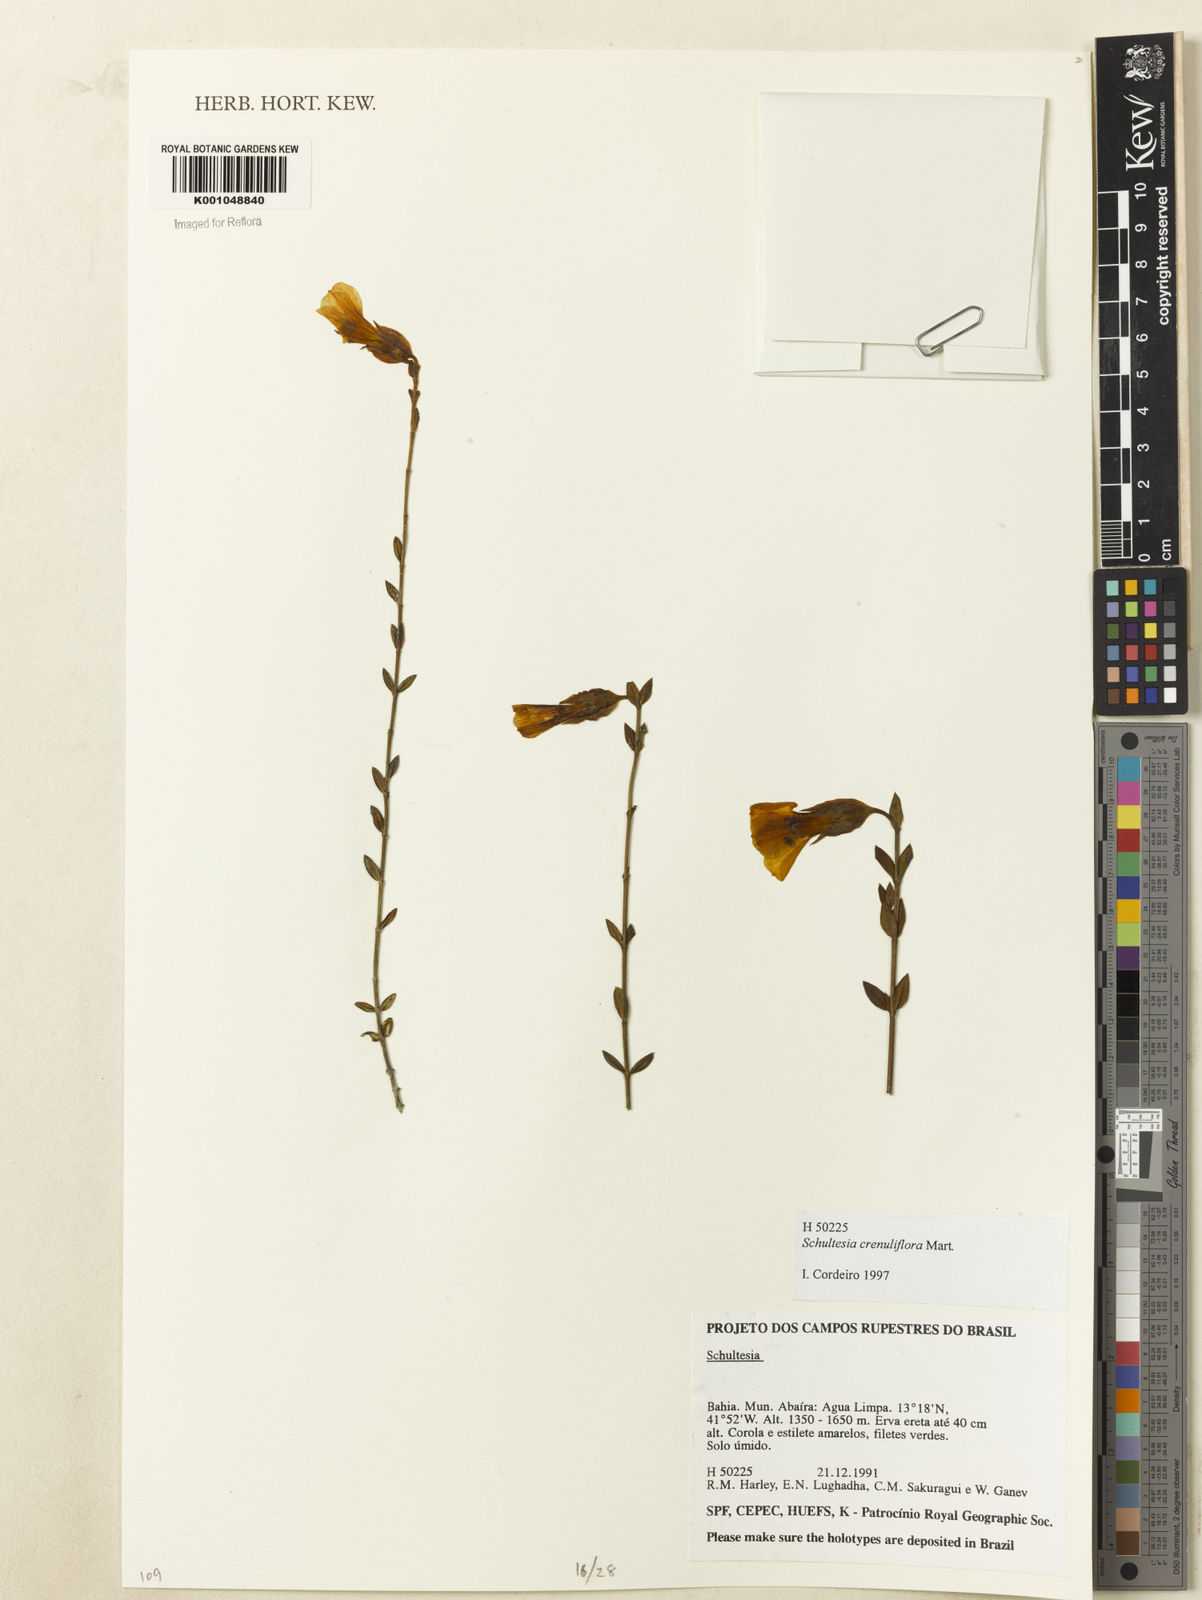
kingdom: Plantae
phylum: Tracheophyta
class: Magnoliopsida
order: Gentianales
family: Gentianaceae
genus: Schultesia
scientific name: Schultesia crenuliflora
